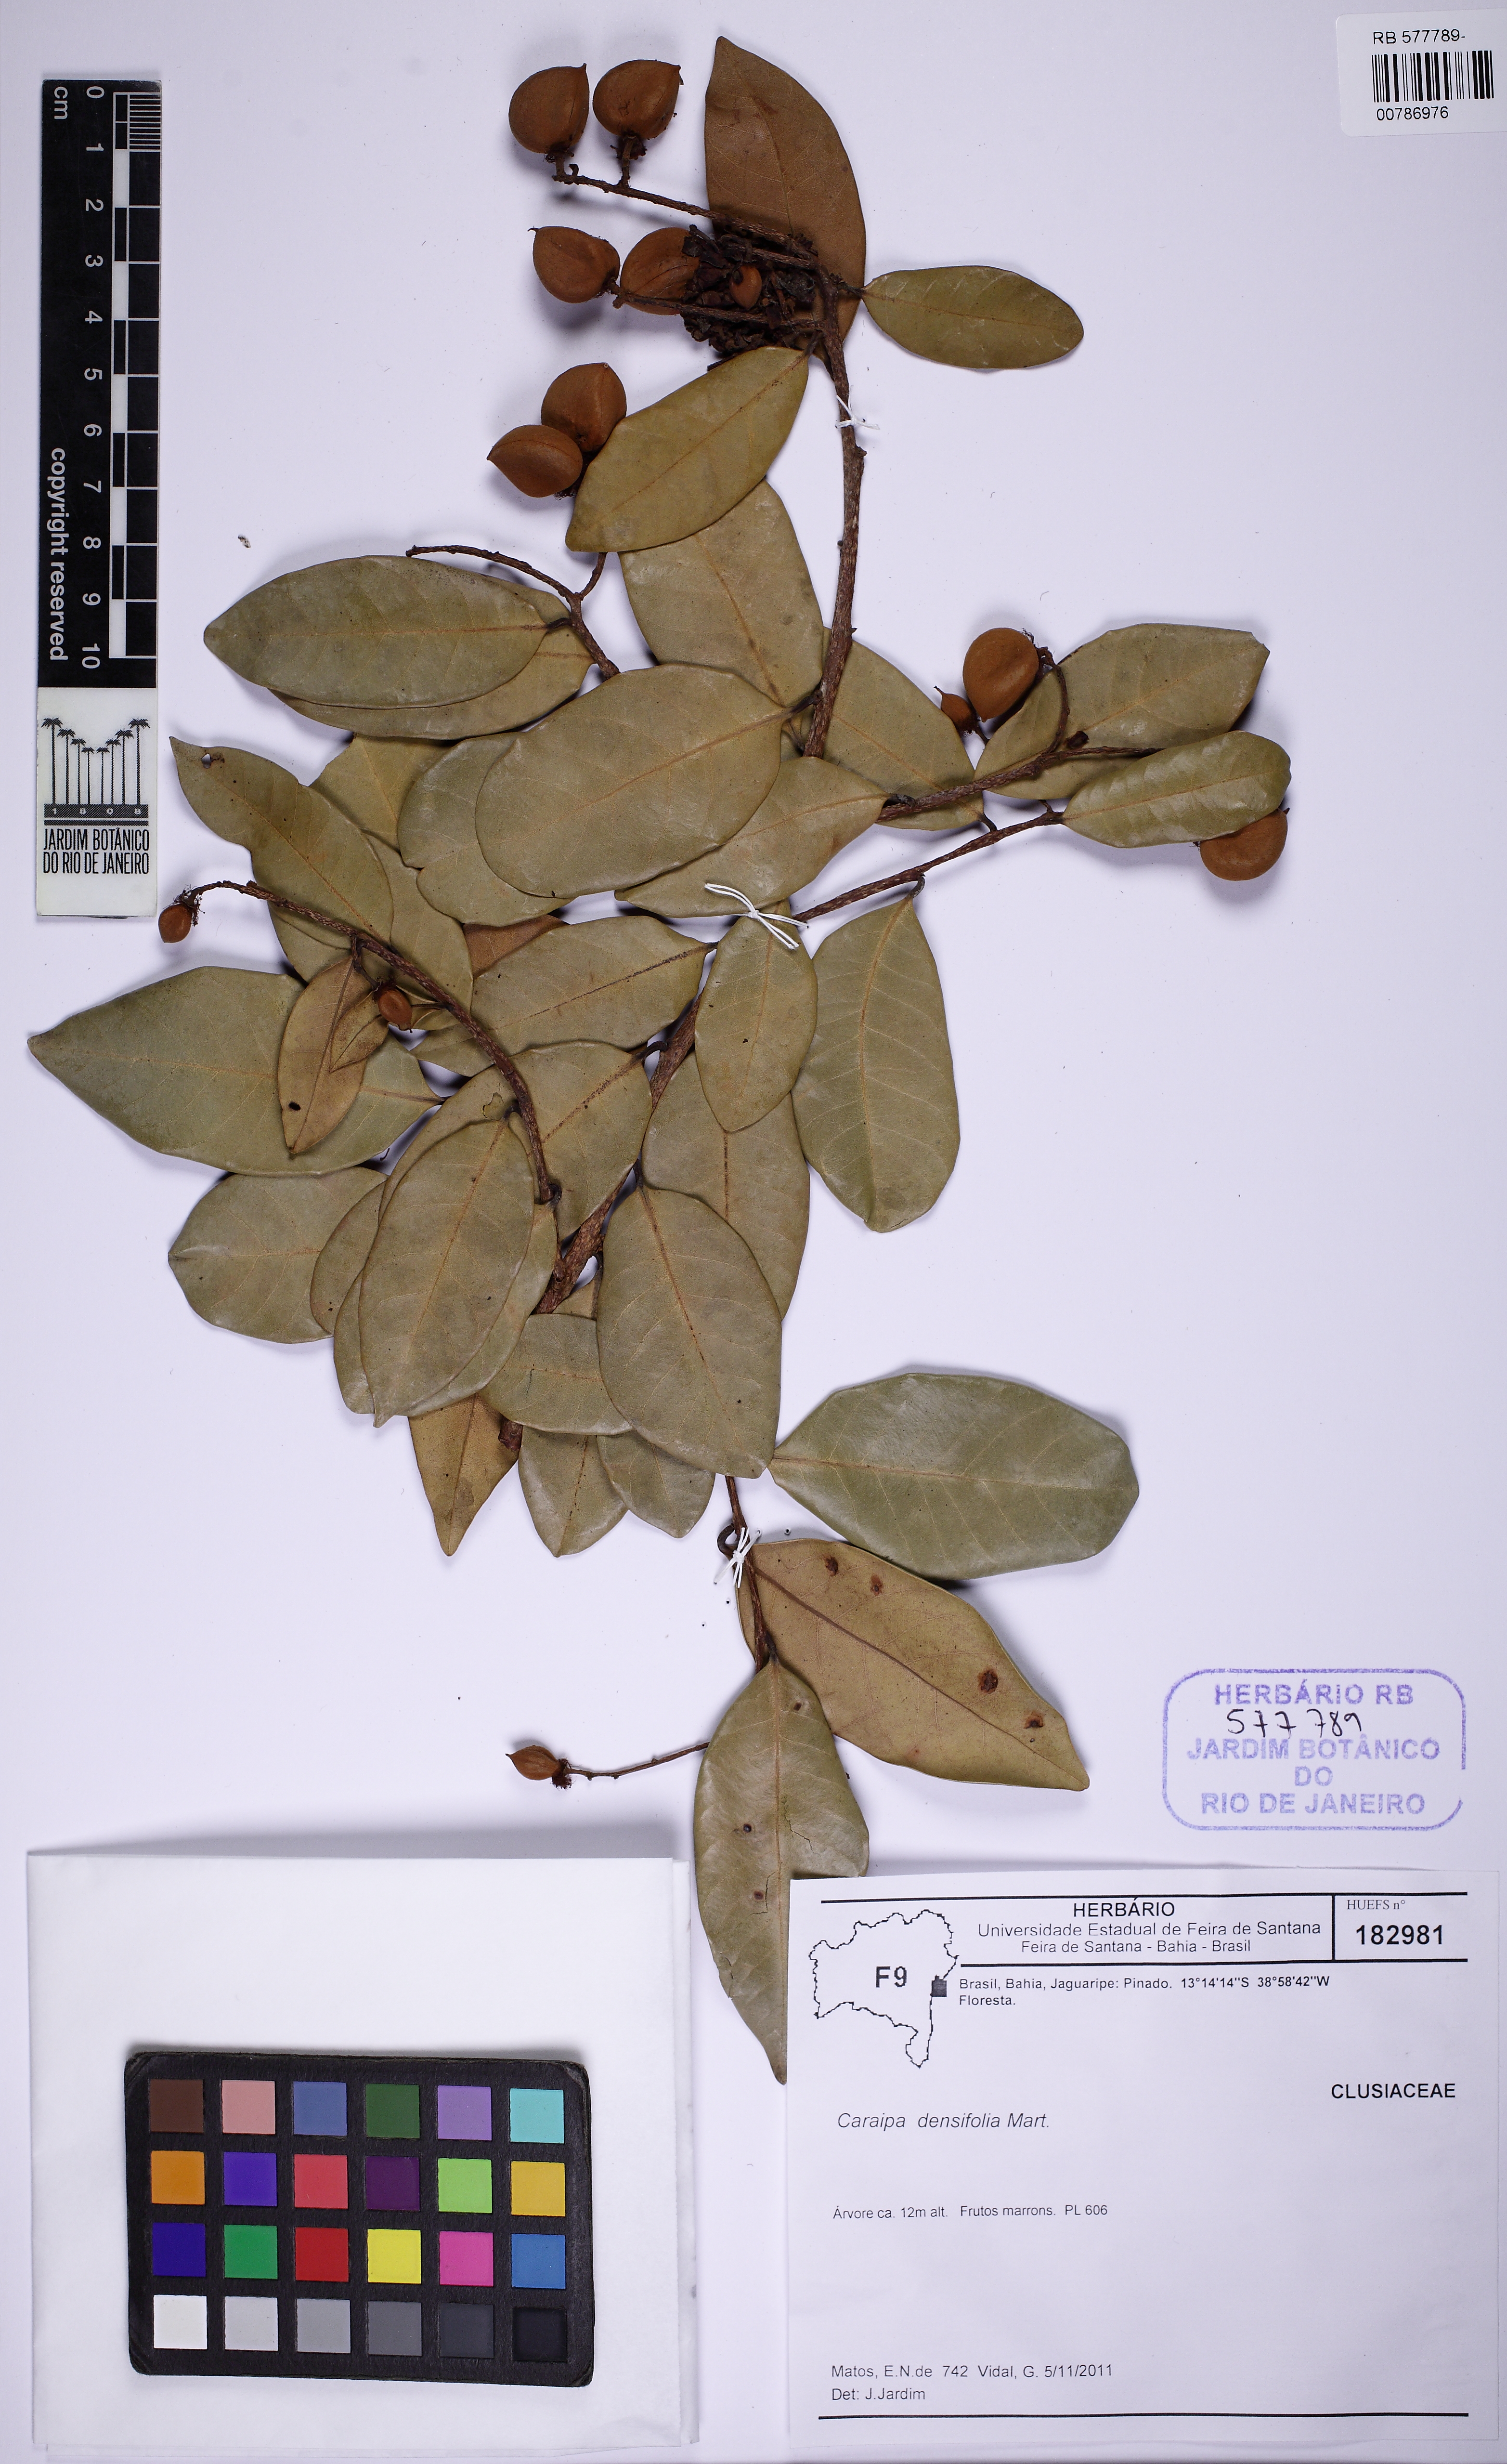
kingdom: Plantae
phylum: Tracheophyta
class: Magnoliopsida
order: Malpighiales
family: Calophyllaceae
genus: Caraipa
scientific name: Caraipa densifolia
